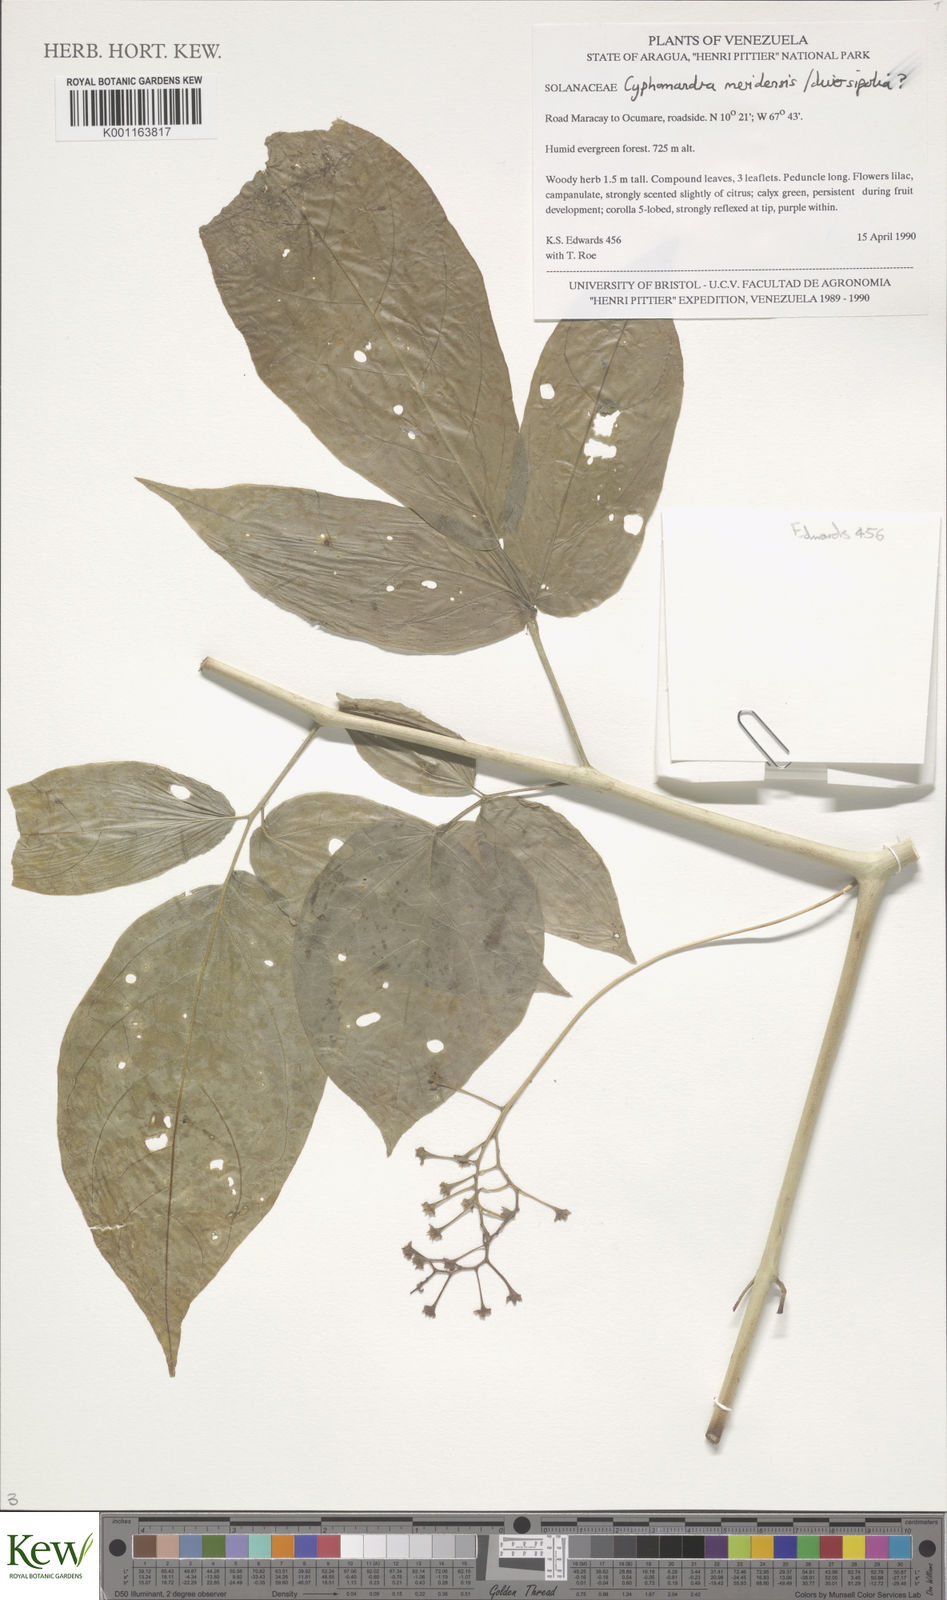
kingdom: Plantae
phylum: Tracheophyta
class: Magnoliopsida
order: Solanales
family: Solanaceae
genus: Solanum
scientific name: Solanum melissarum
